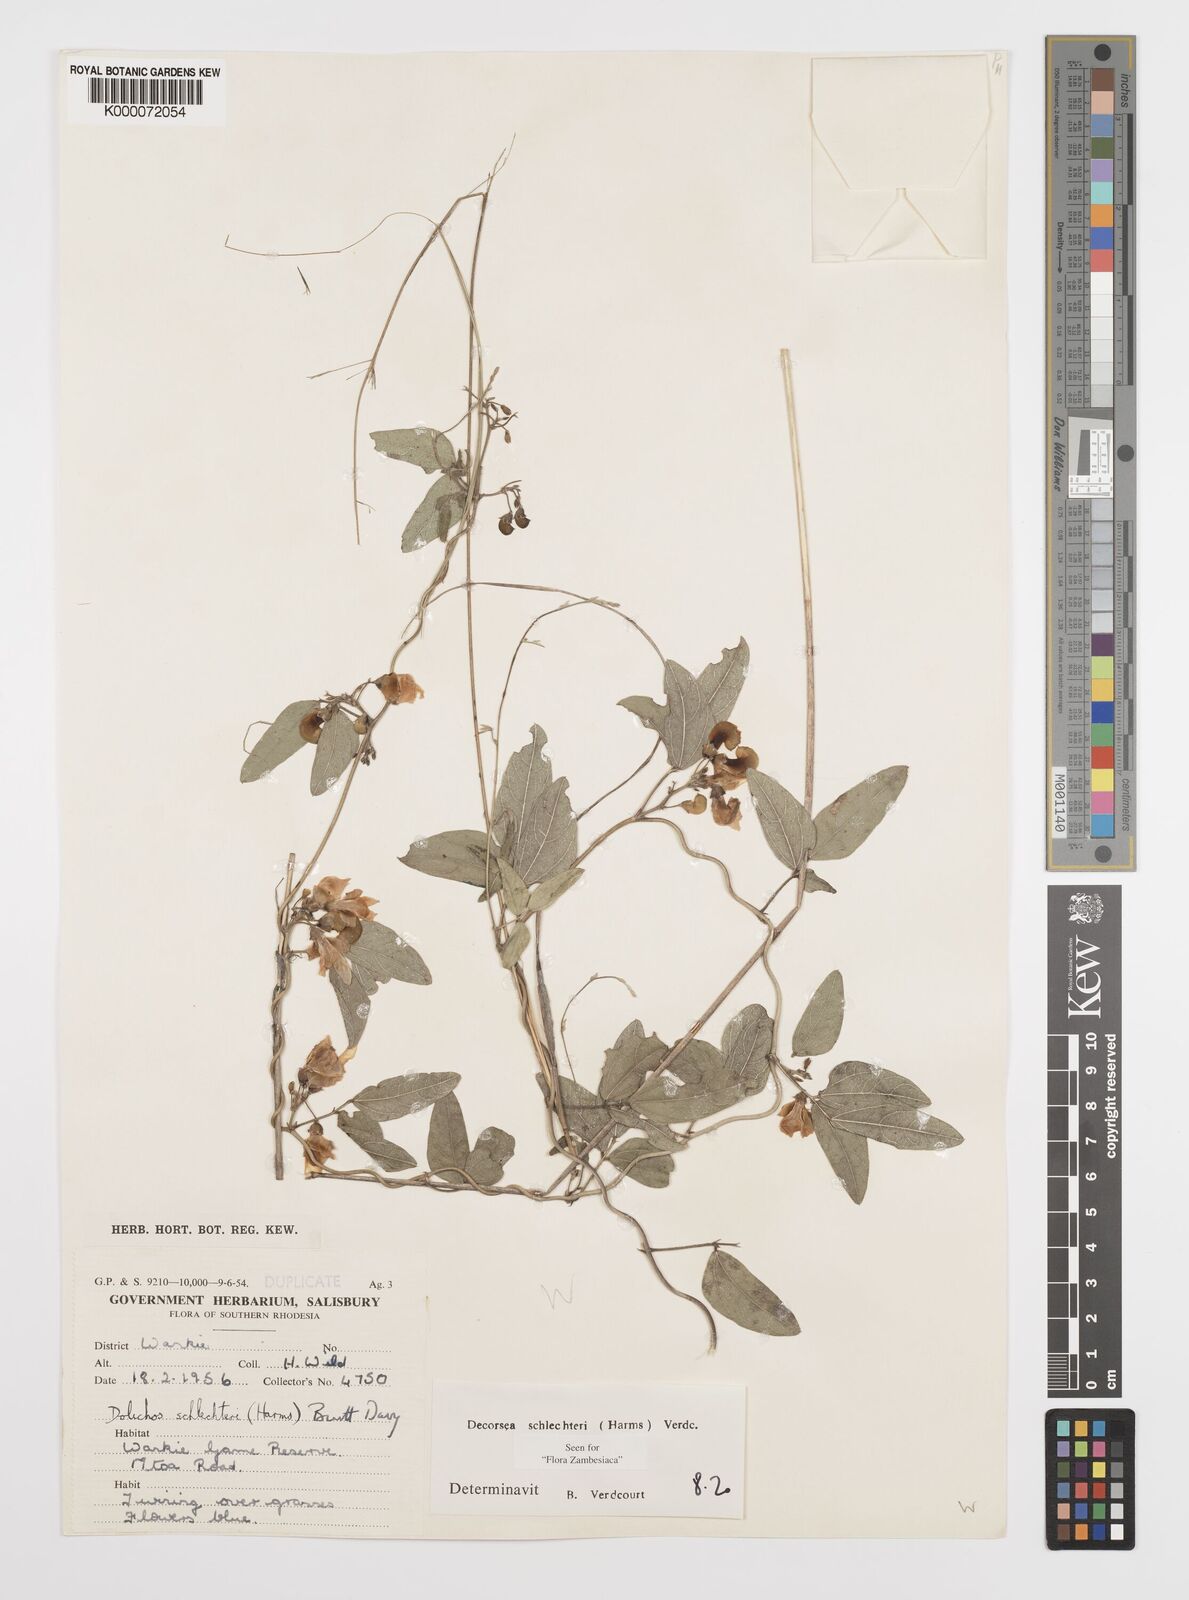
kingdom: Plantae
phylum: Tracheophyta
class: Magnoliopsida
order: Fabales
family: Fabaceae
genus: Decorsea
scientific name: Decorsea schlechteri
